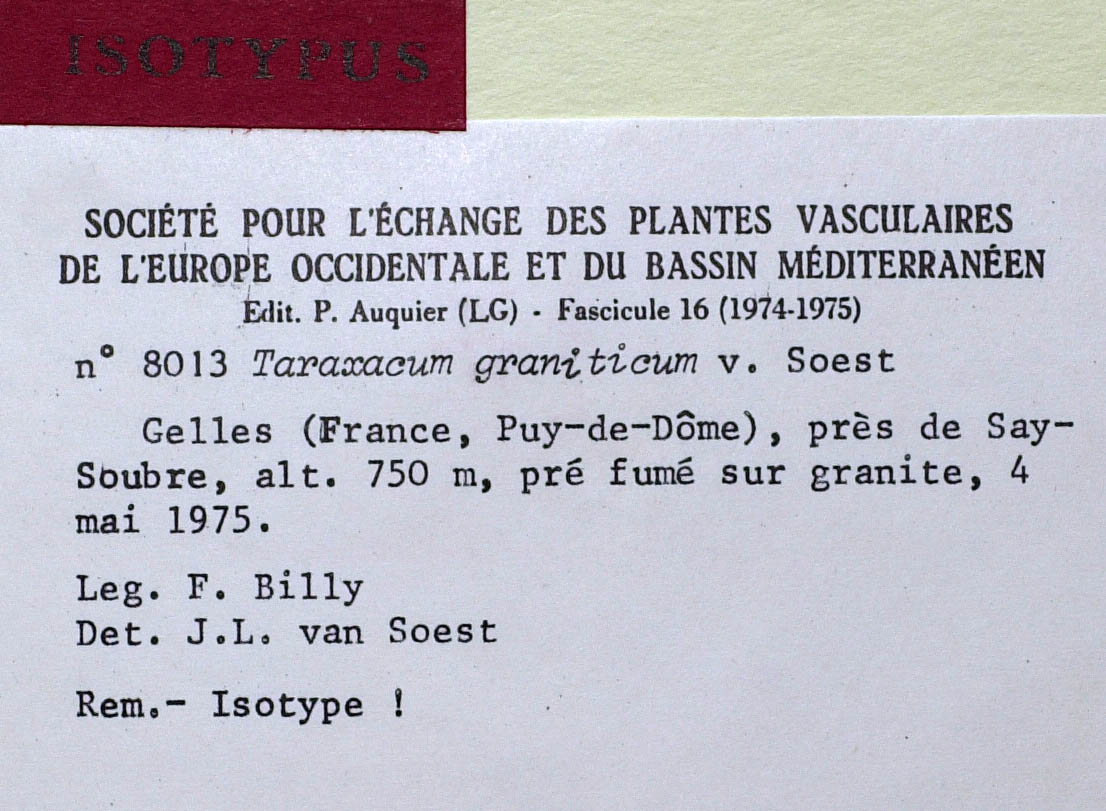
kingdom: Plantae
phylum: Tracheophyta
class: Magnoliopsida
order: Asterales
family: Asteraceae
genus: Taraxacum
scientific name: Taraxacum graniticum
